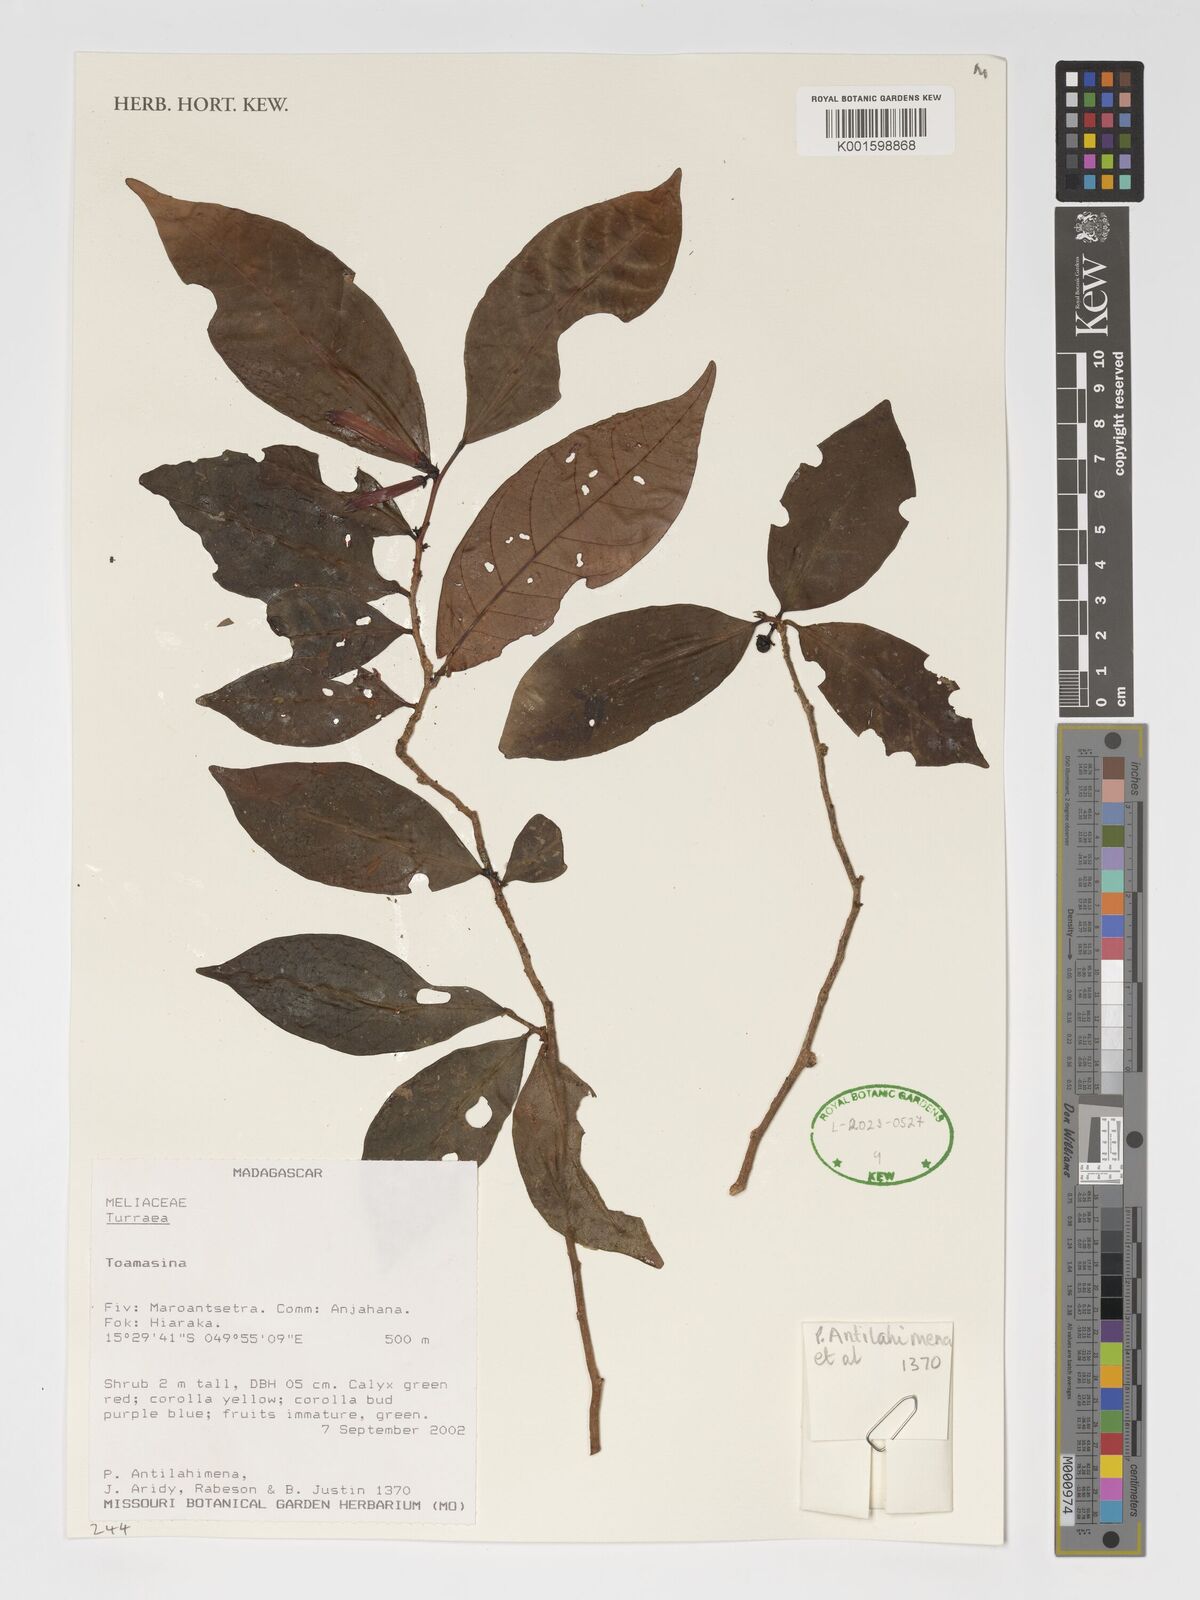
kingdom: Plantae
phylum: Tracheophyta
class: Magnoliopsida
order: Sapindales
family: Meliaceae
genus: Turraea
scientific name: Turraea
